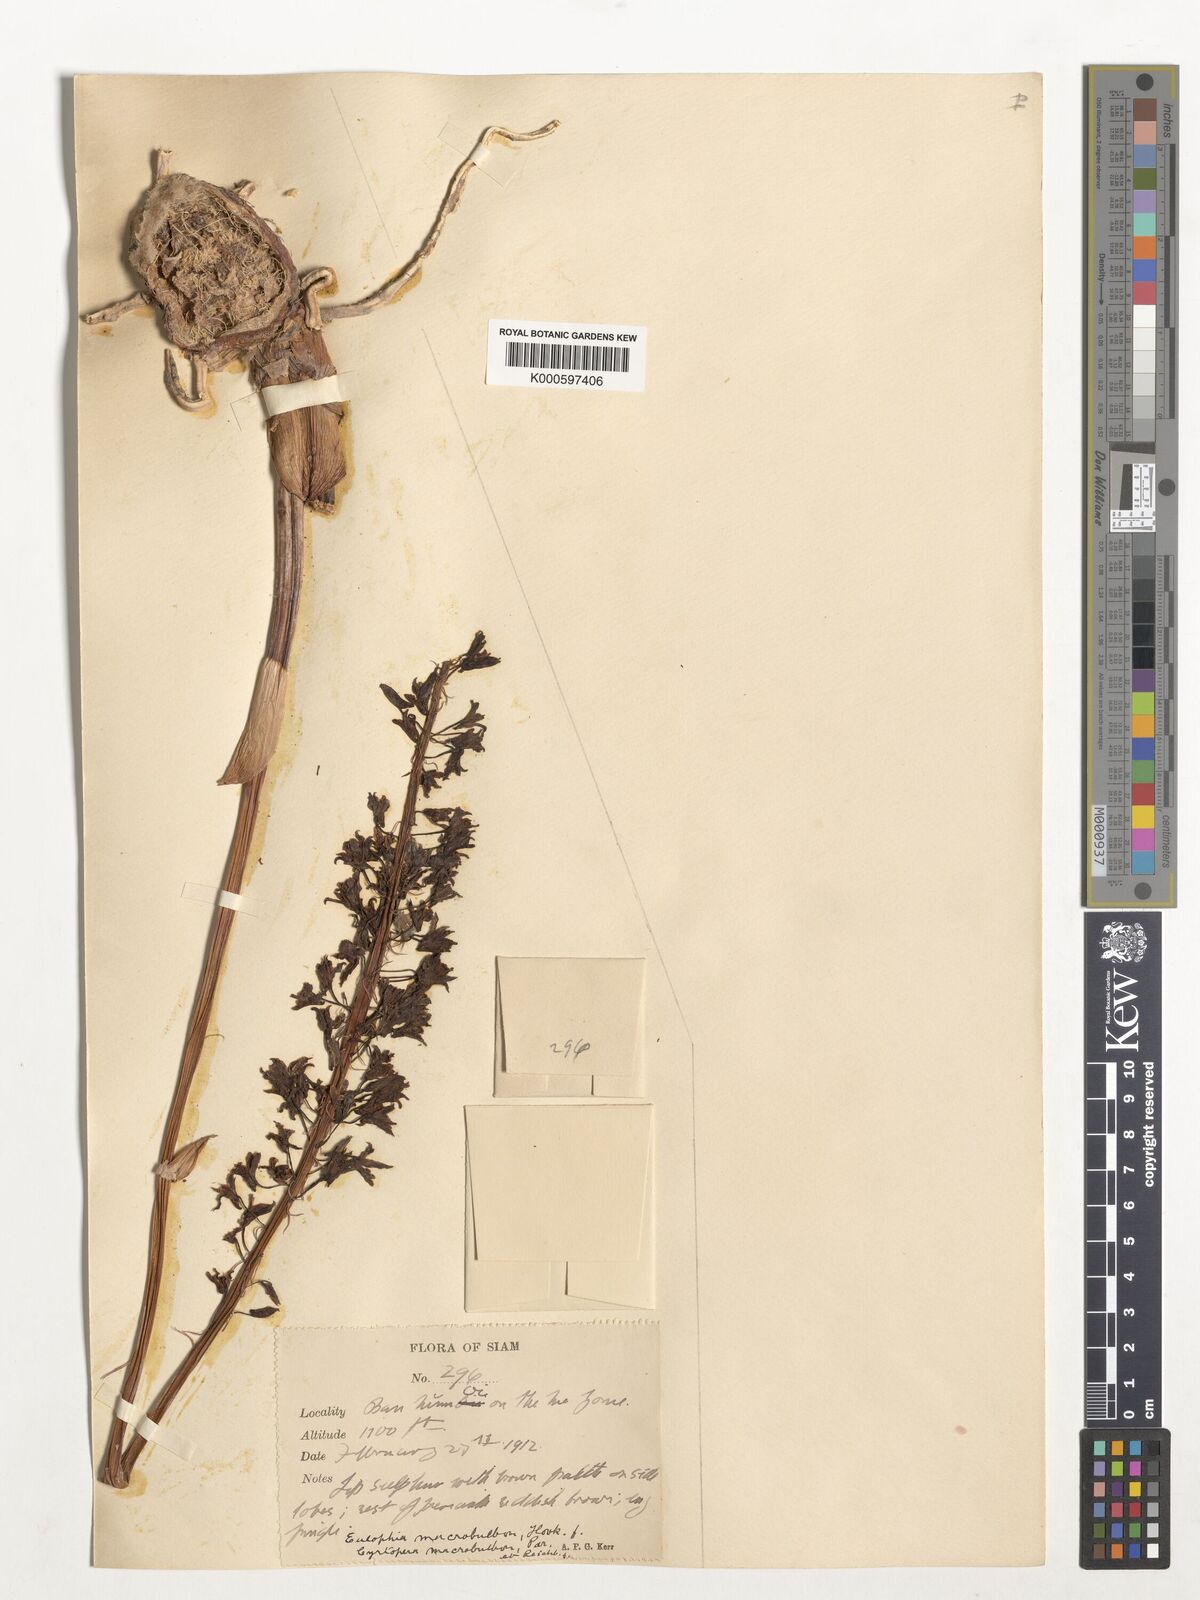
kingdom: Plantae
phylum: Tracheophyta
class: Liliopsida
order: Asparagales
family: Orchidaceae
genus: Eulophia
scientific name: Eulophia macrobulbon
